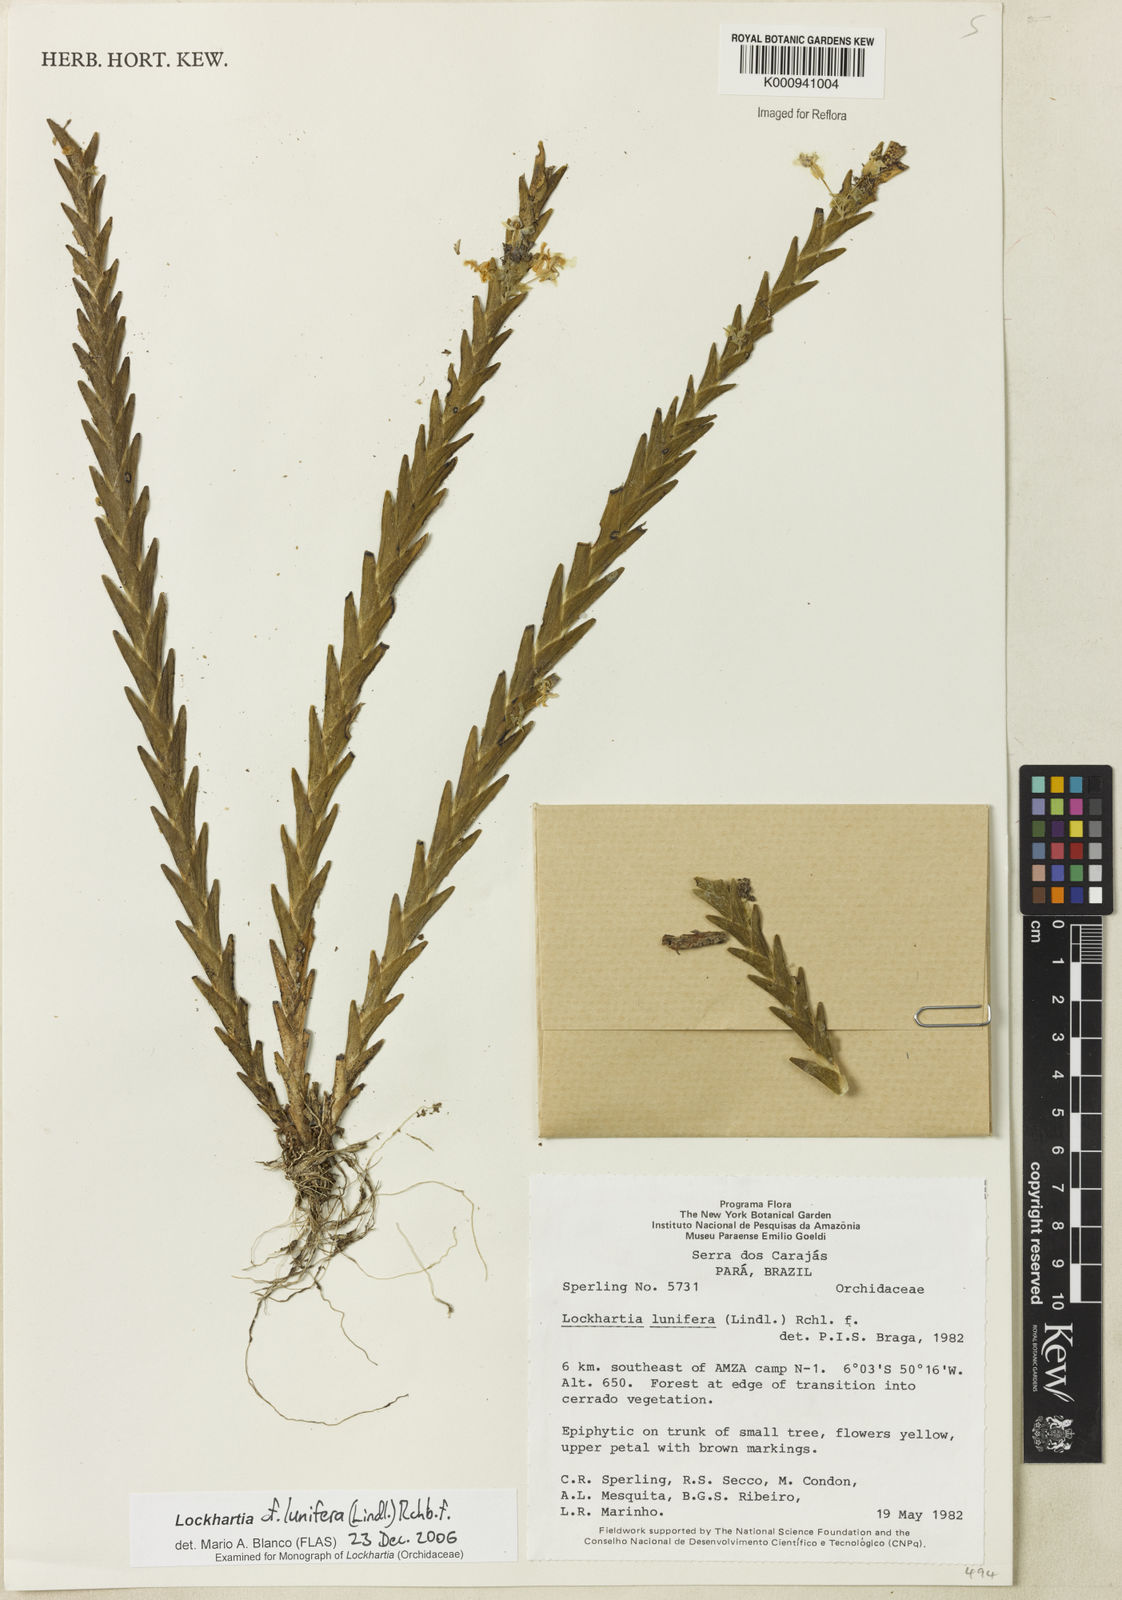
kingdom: Plantae
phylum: Tracheophyta
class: Liliopsida
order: Asparagales
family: Orchidaceae
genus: Lockhartia
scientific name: Lockhartia lunifera
